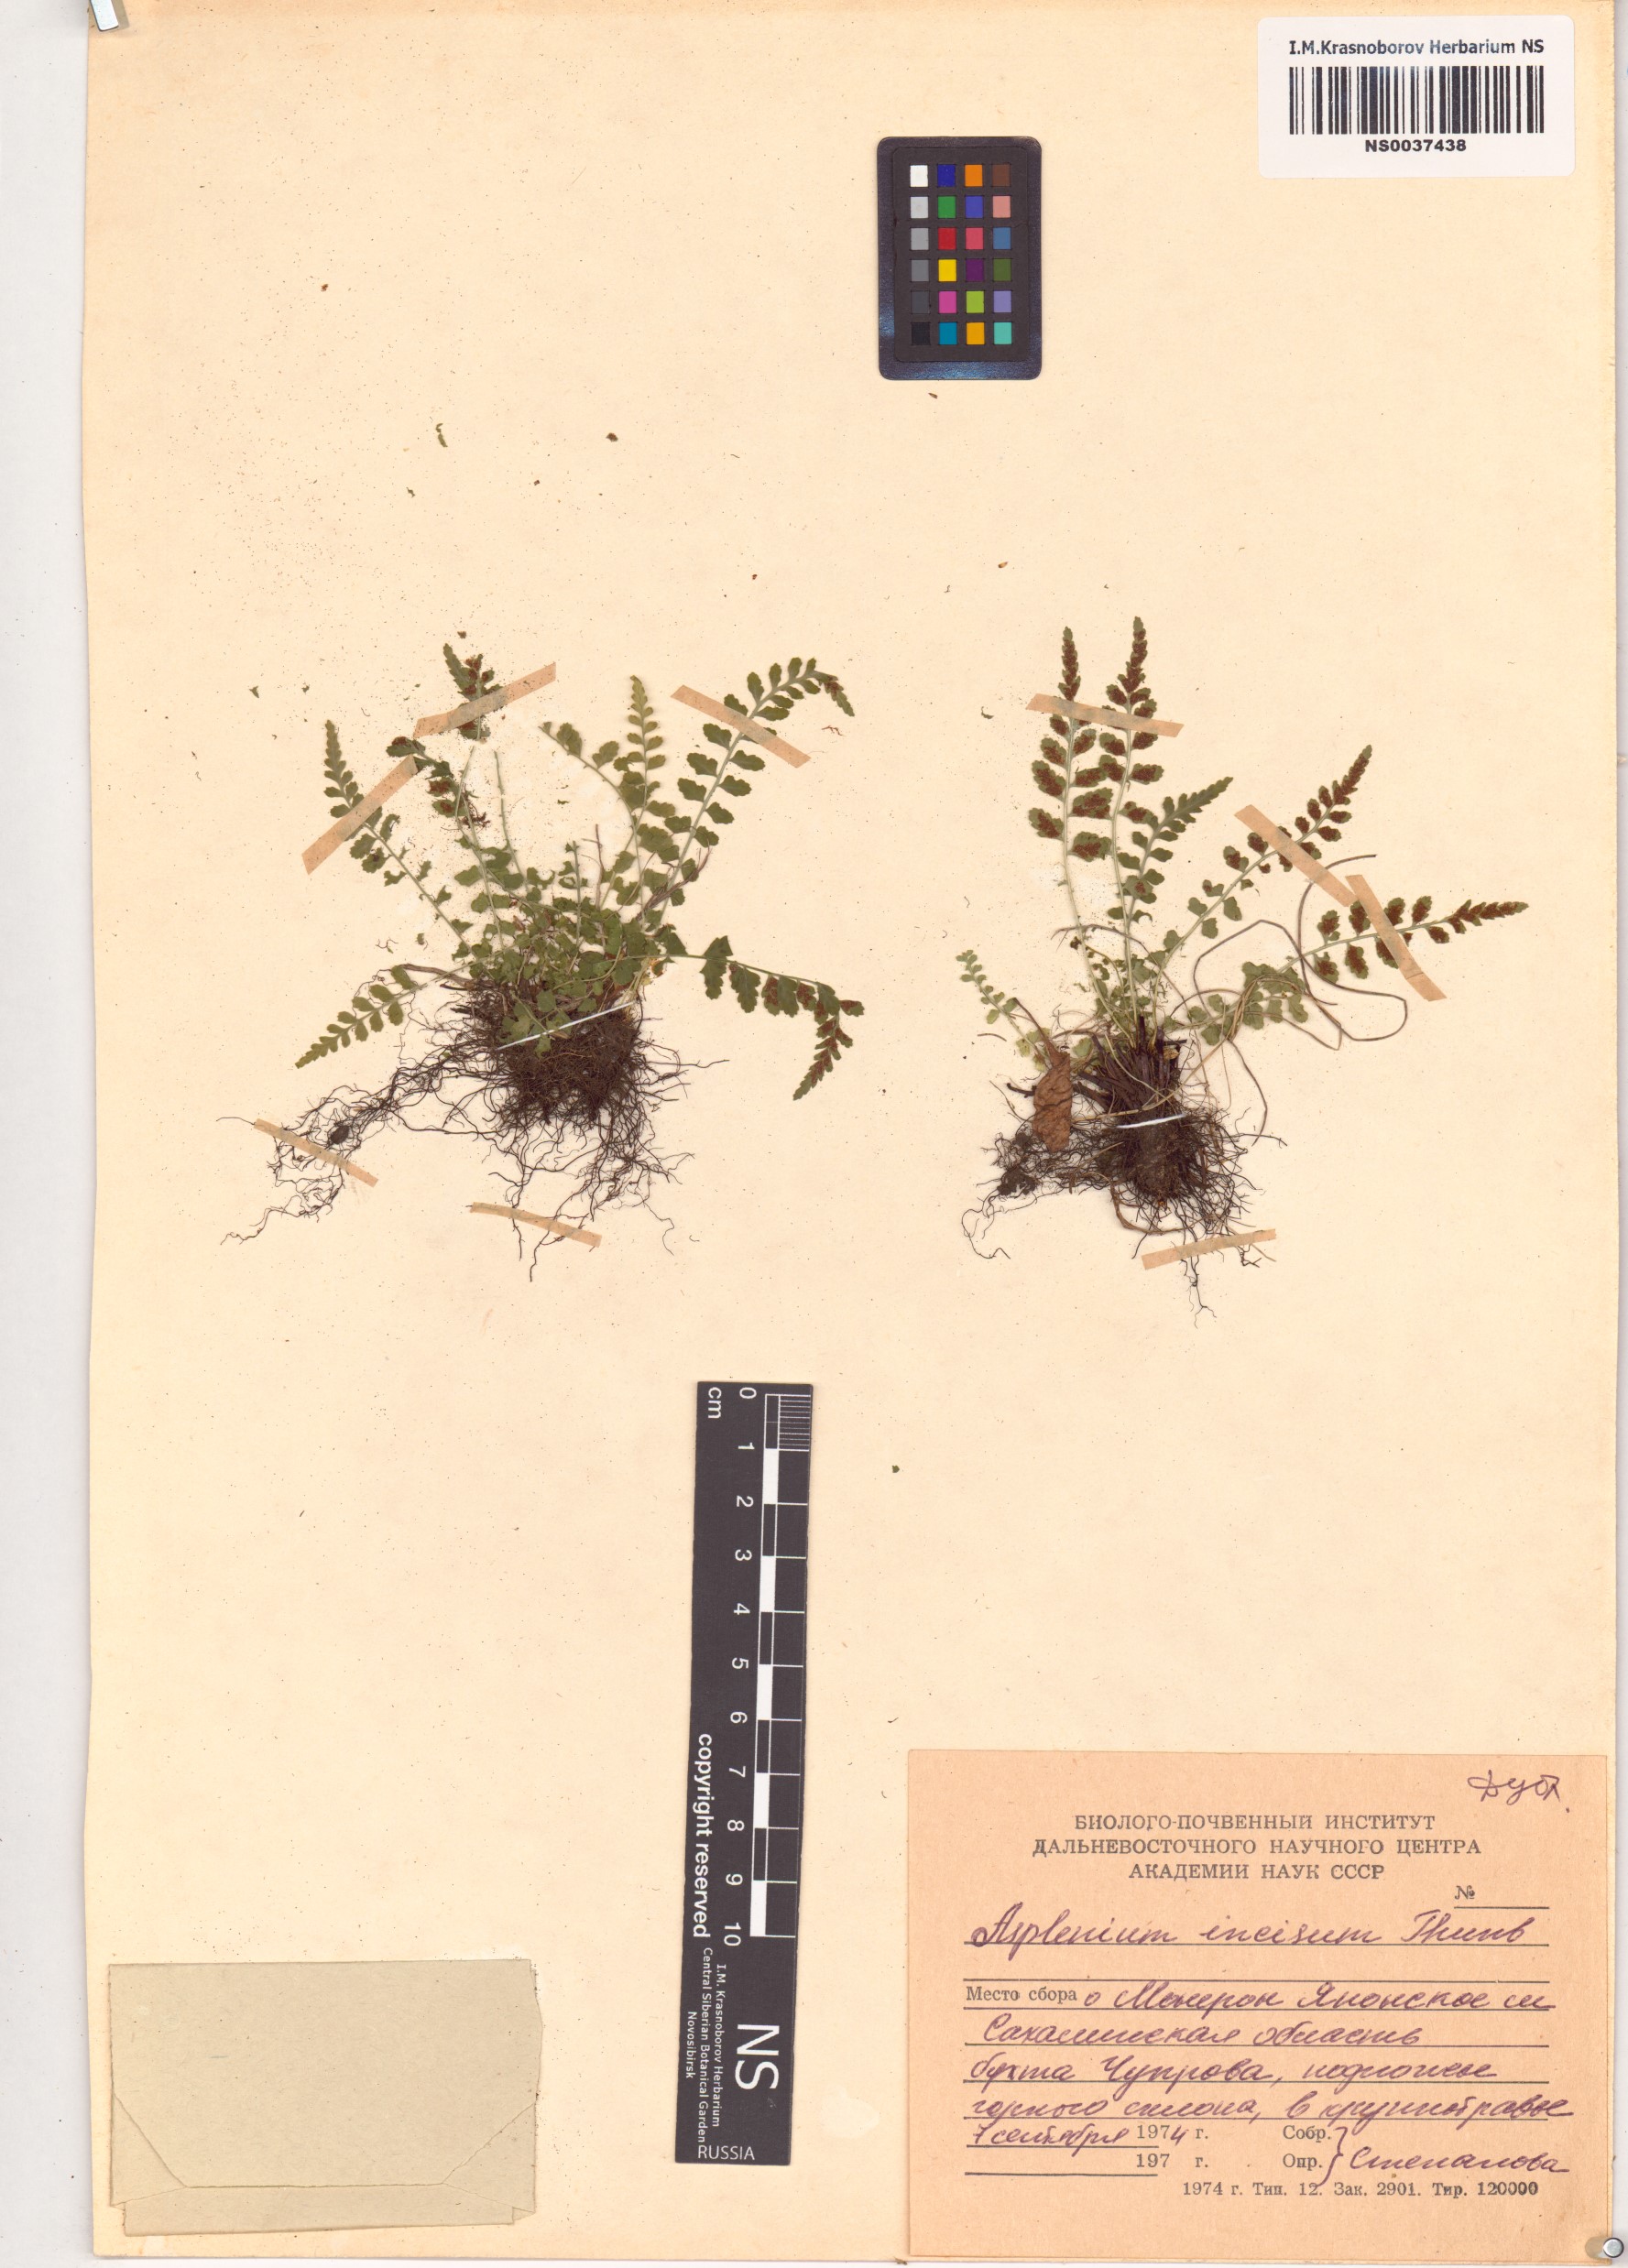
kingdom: Plantae
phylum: Tracheophyta
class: Polypodiopsida
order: Polypodiales
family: Aspleniaceae
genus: Asplenium
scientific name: Asplenium incisum
